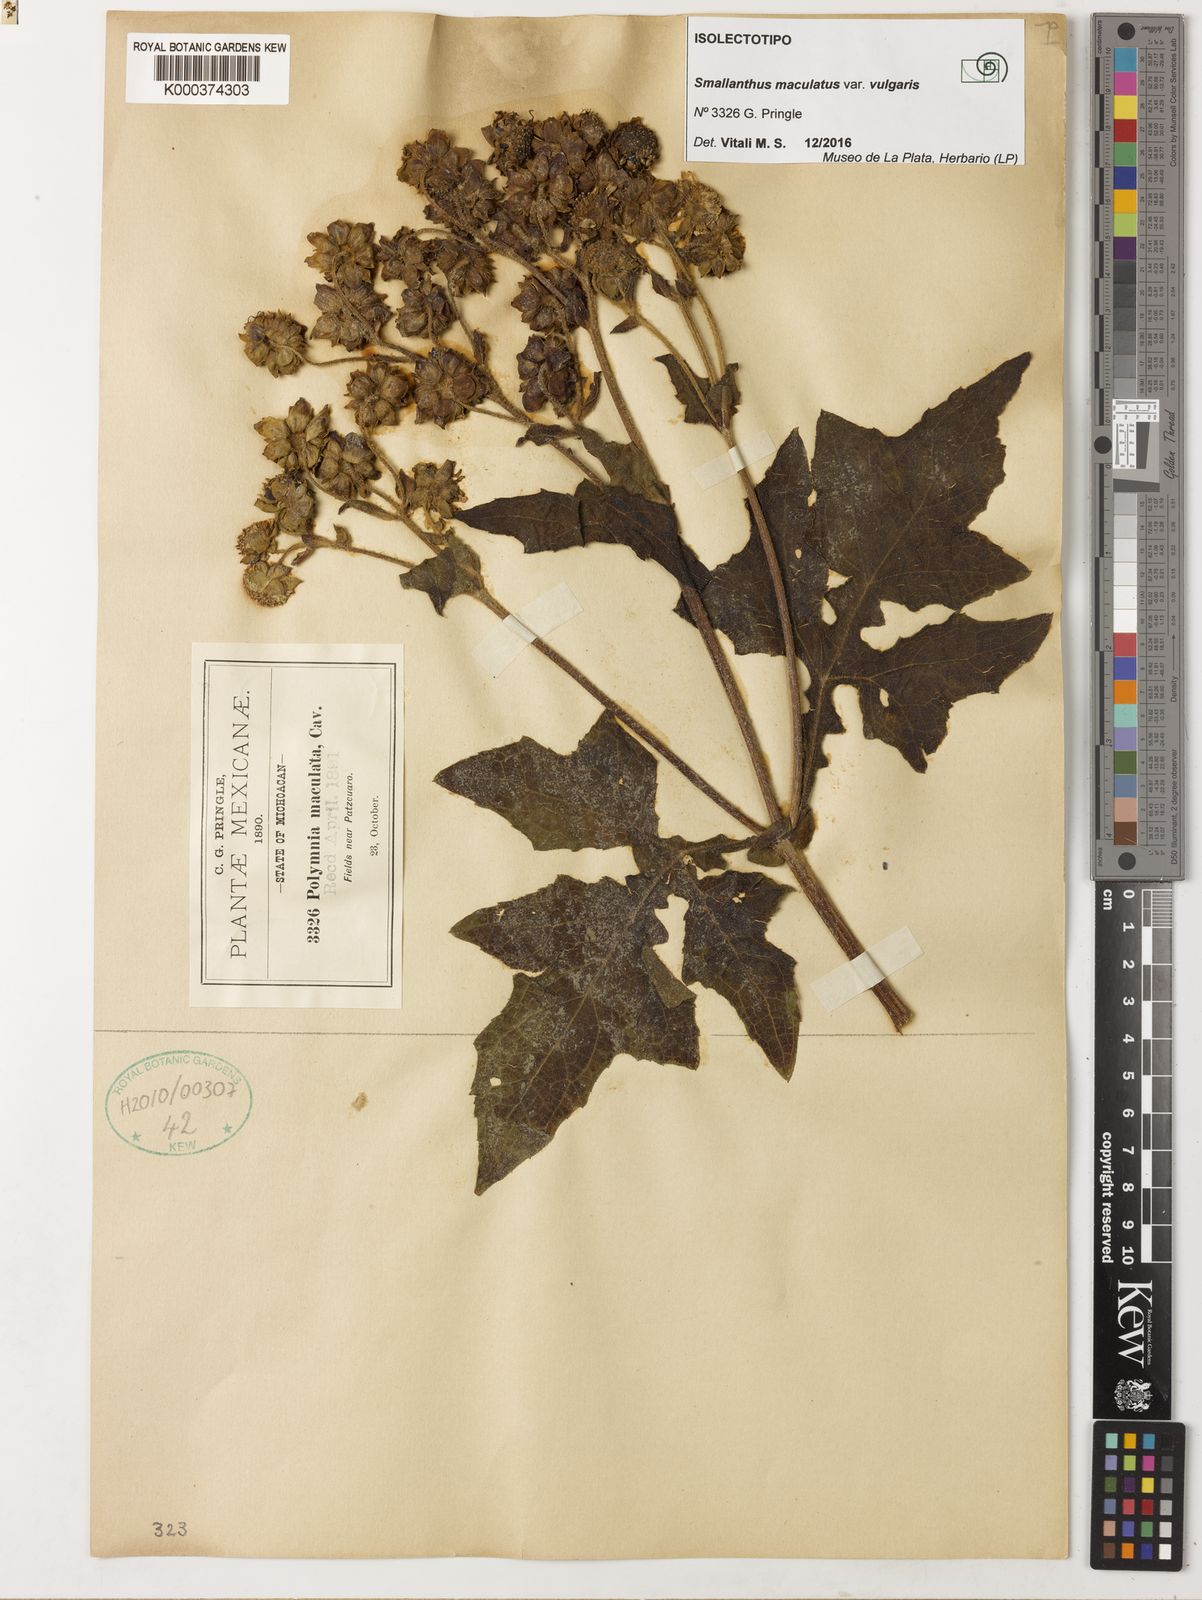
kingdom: Plantae
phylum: Tracheophyta
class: Magnoliopsida
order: Asterales
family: Asteraceae
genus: Smallanthus
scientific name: Smallanthus maculatus
